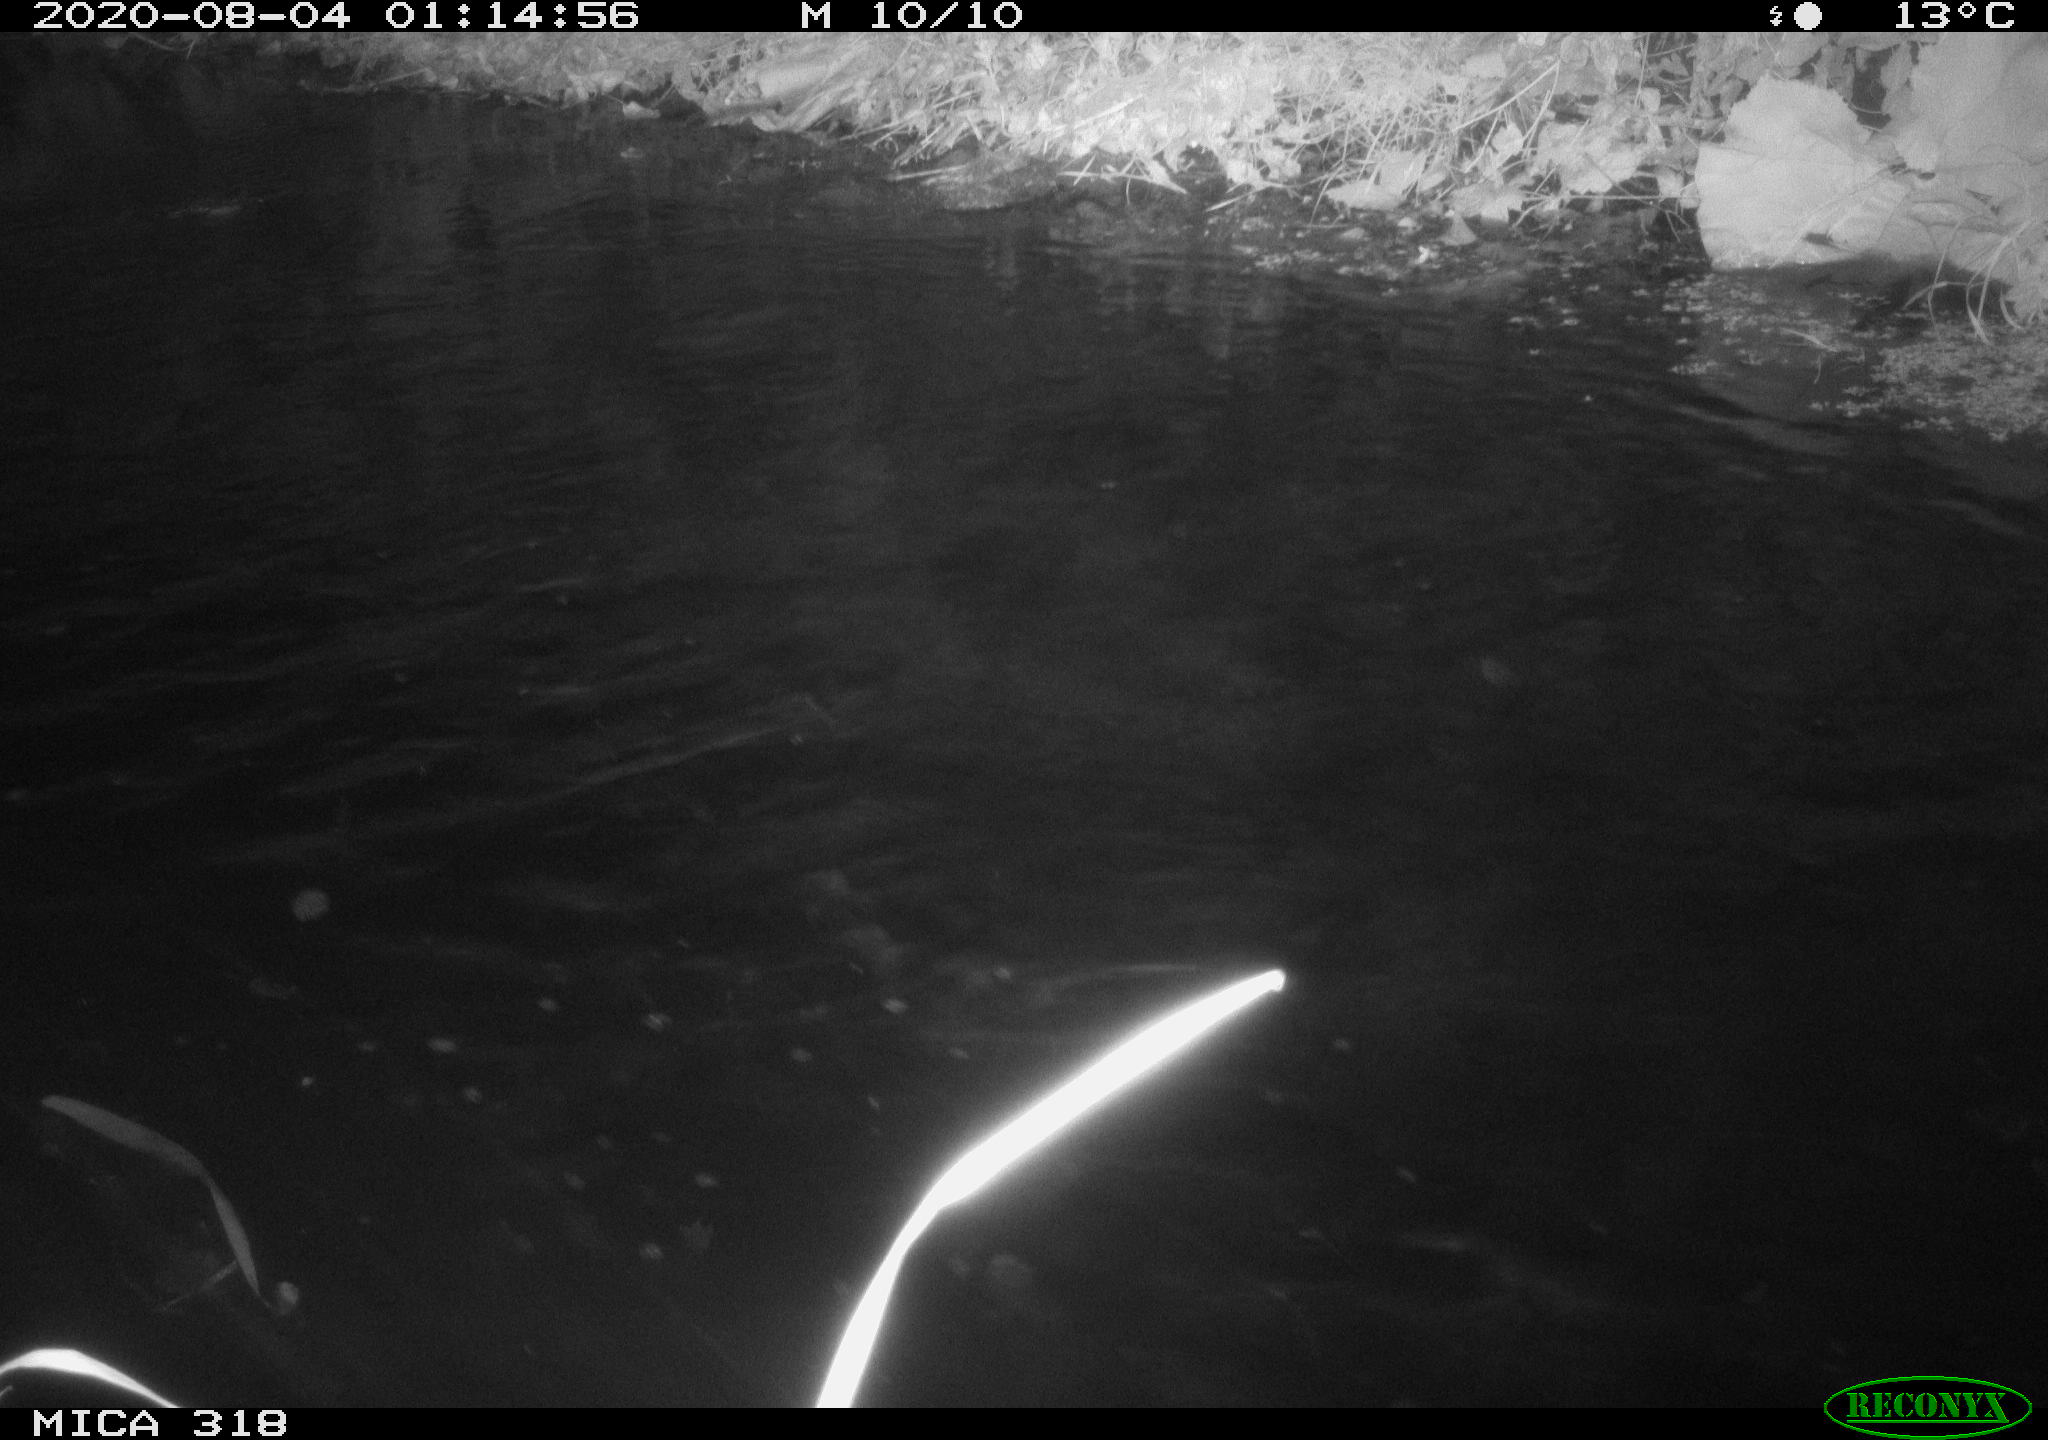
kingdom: Animalia
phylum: Chordata
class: Aves
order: Anseriformes
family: Anatidae
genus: Anas
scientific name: Anas platyrhynchos
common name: Mallard
